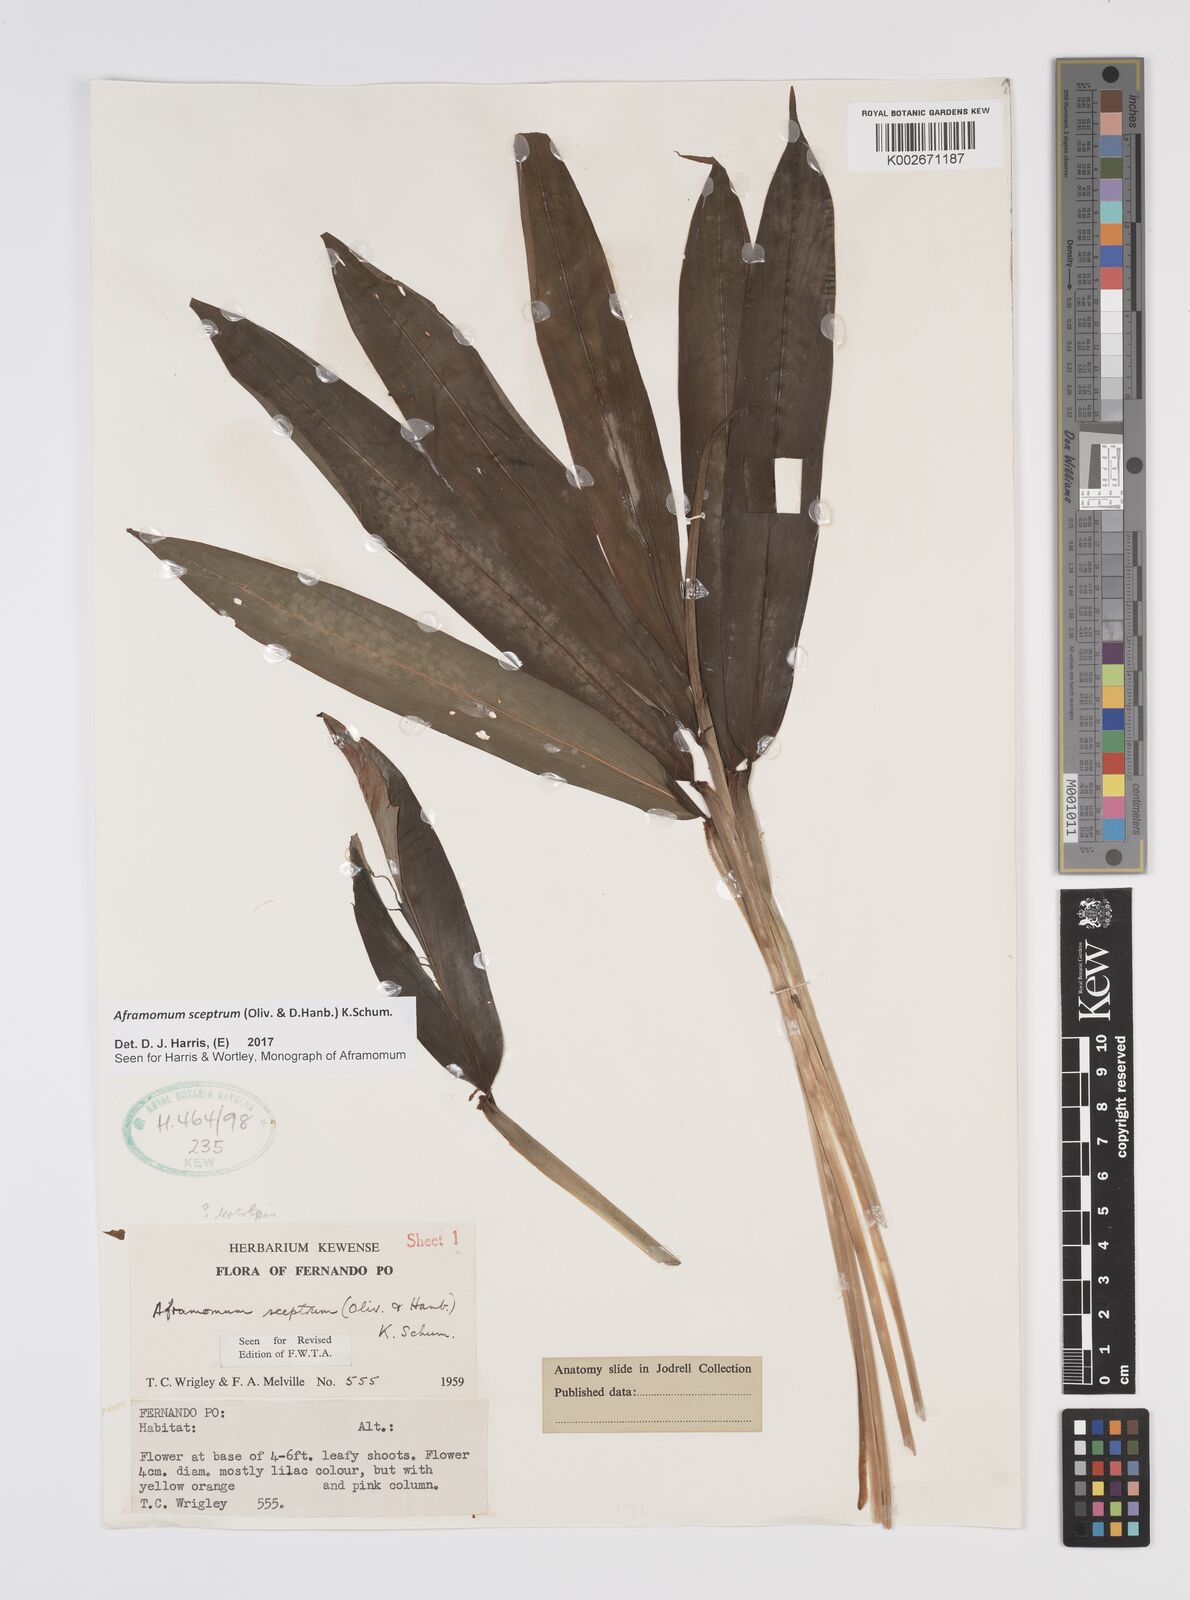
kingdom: Plantae
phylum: Tracheophyta
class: Liliopsida
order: Zingiberales
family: Zingiberaceae
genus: Aframomum
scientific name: Aframomum cereum
